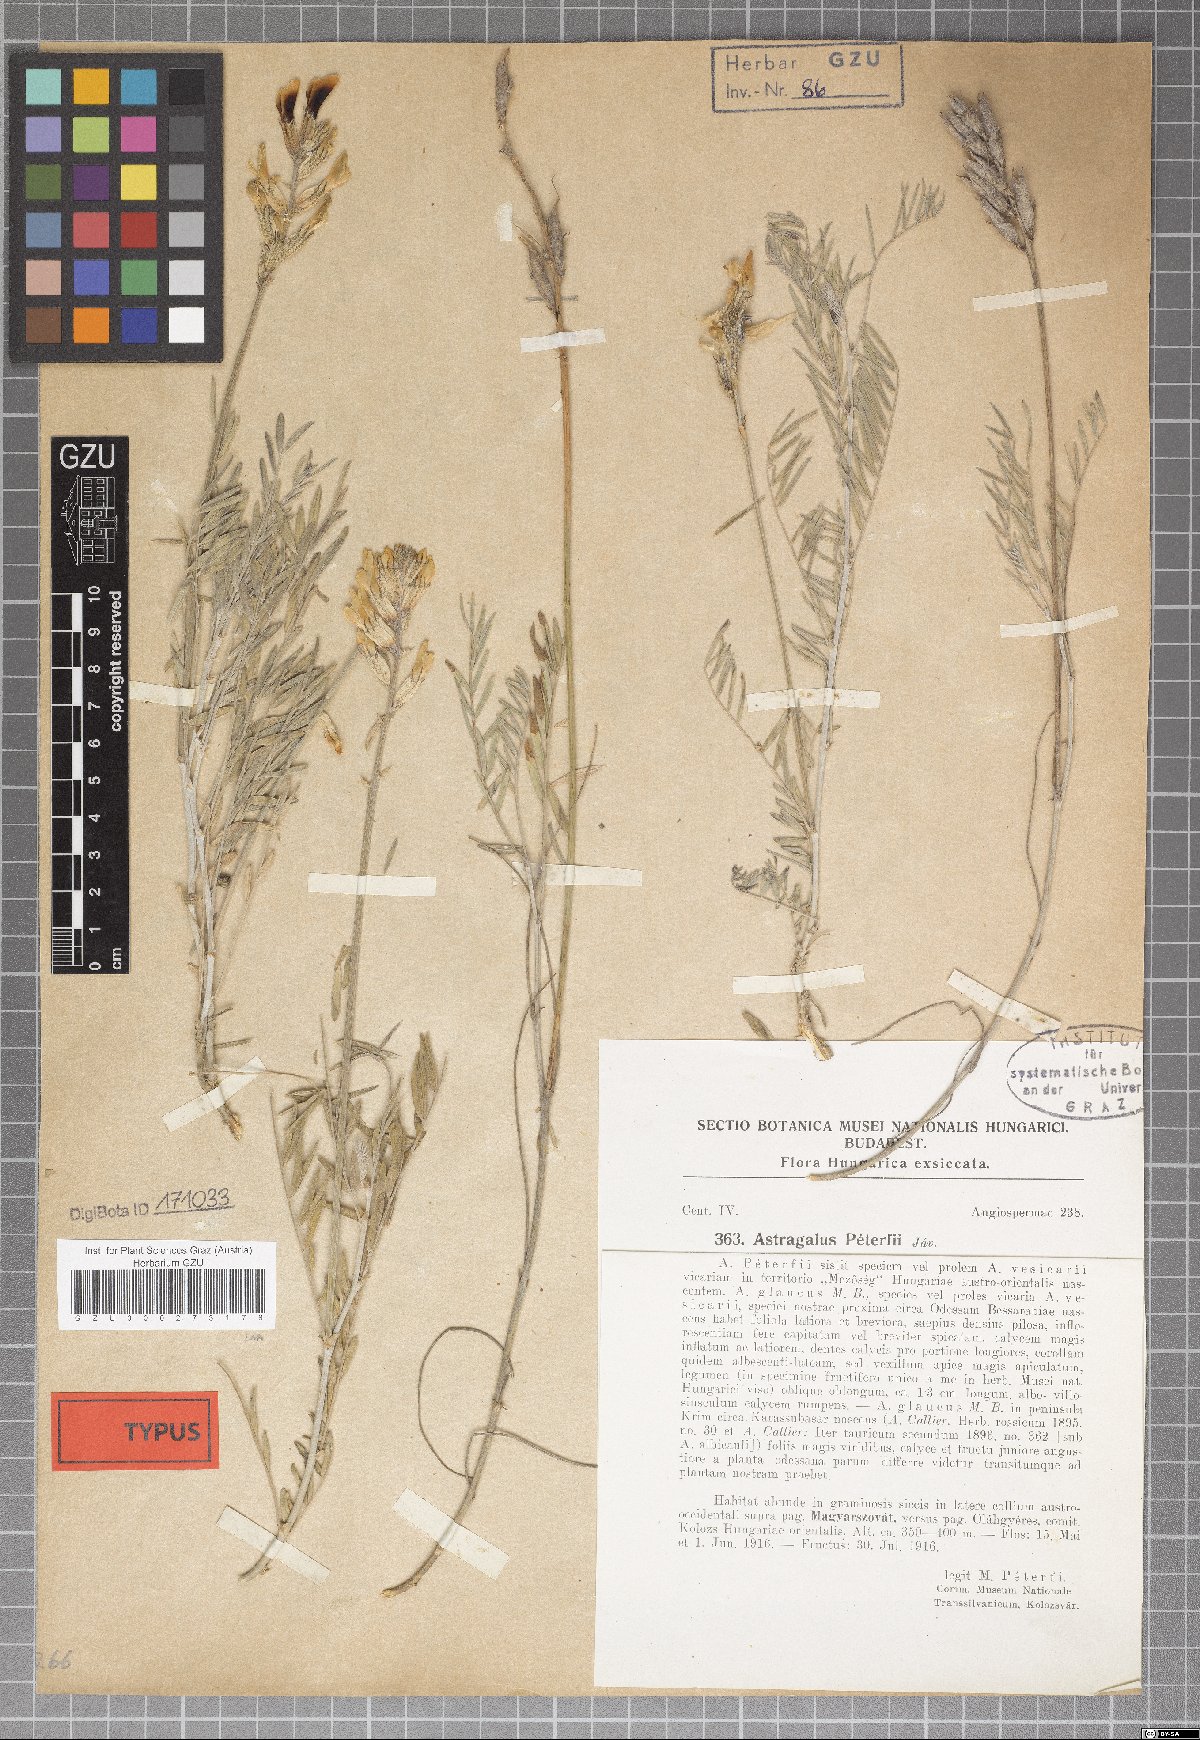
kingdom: Plantae
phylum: Tracheophyta
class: Magnoliopsida
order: Fabales
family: Fabaceae
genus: Astragalus
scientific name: Astragalus peterfii
